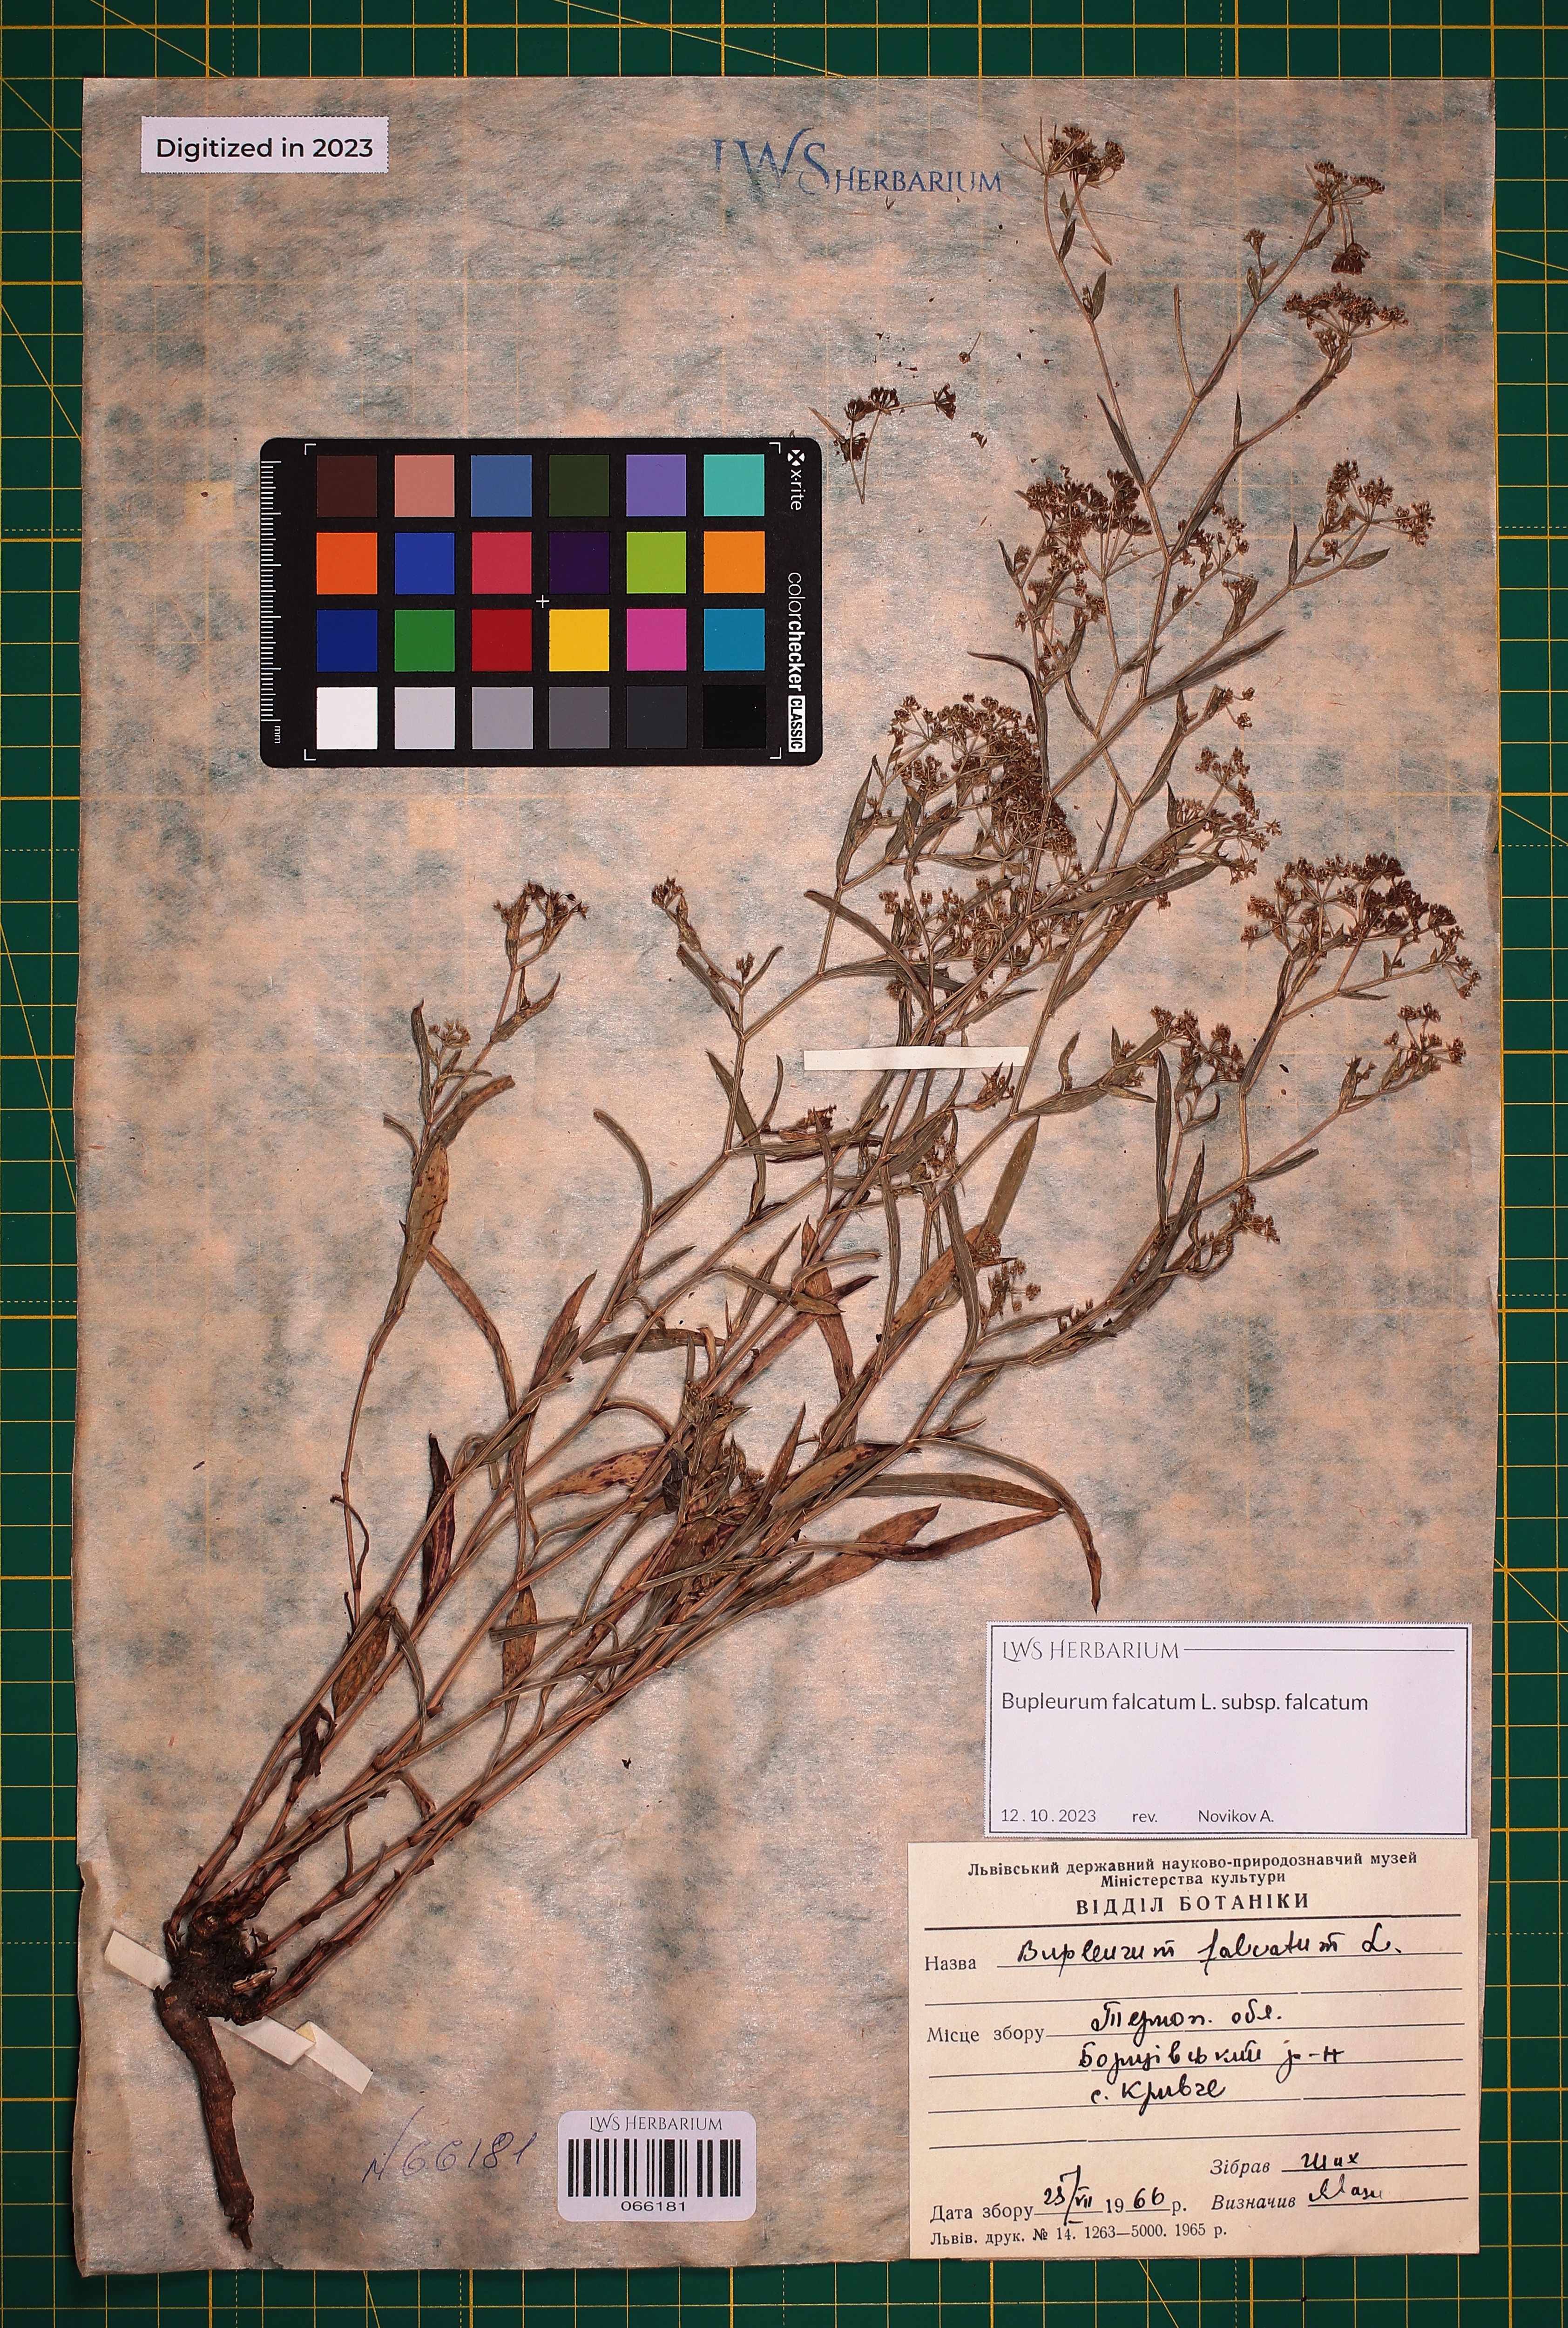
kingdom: Plantae
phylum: Tracheophyta
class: Magnoliopsida
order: Apiales
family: Apiaceae
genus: Bupleurum
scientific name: Bupleurum falcatum
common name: Sickle-leaved hare's-ear
